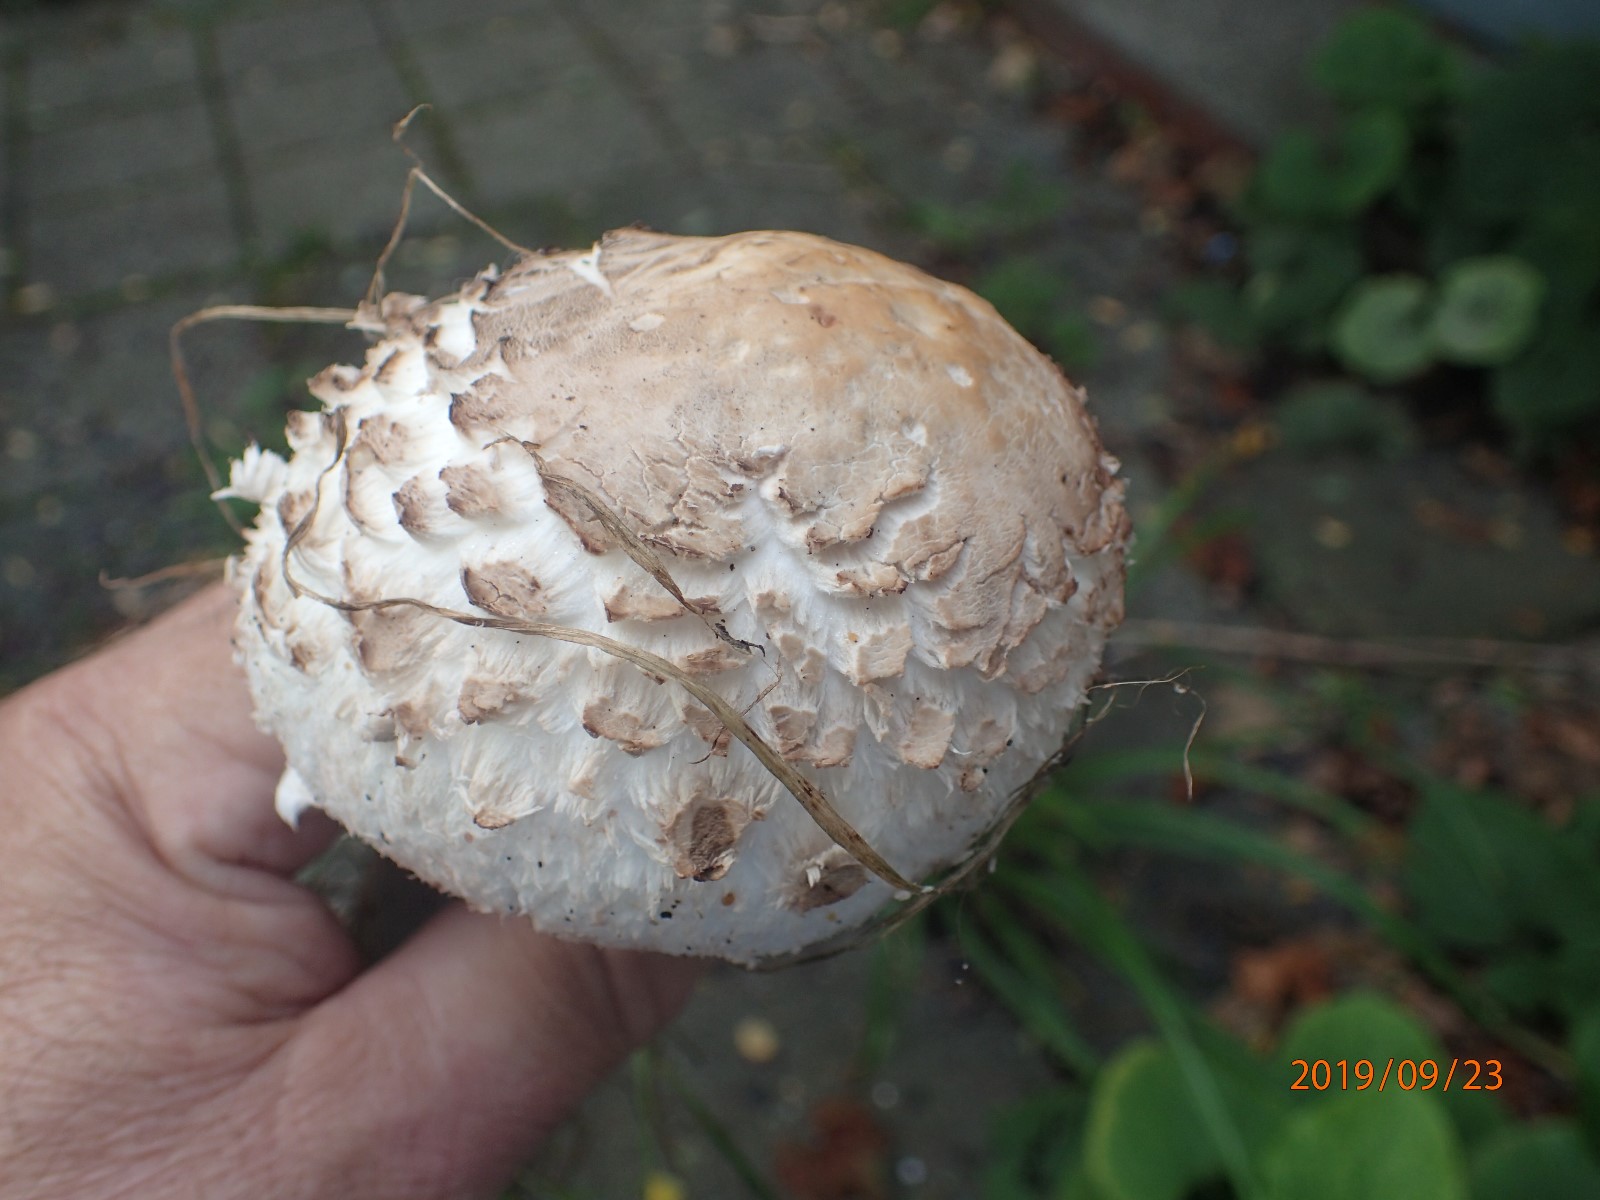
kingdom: Fungi
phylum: Basidiomycota
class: Agaricomycetes
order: Agaricales
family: Agaricaceae
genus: Chlorophyllum
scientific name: Chlorophyllum rhacodes
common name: ægte rabarberhat
